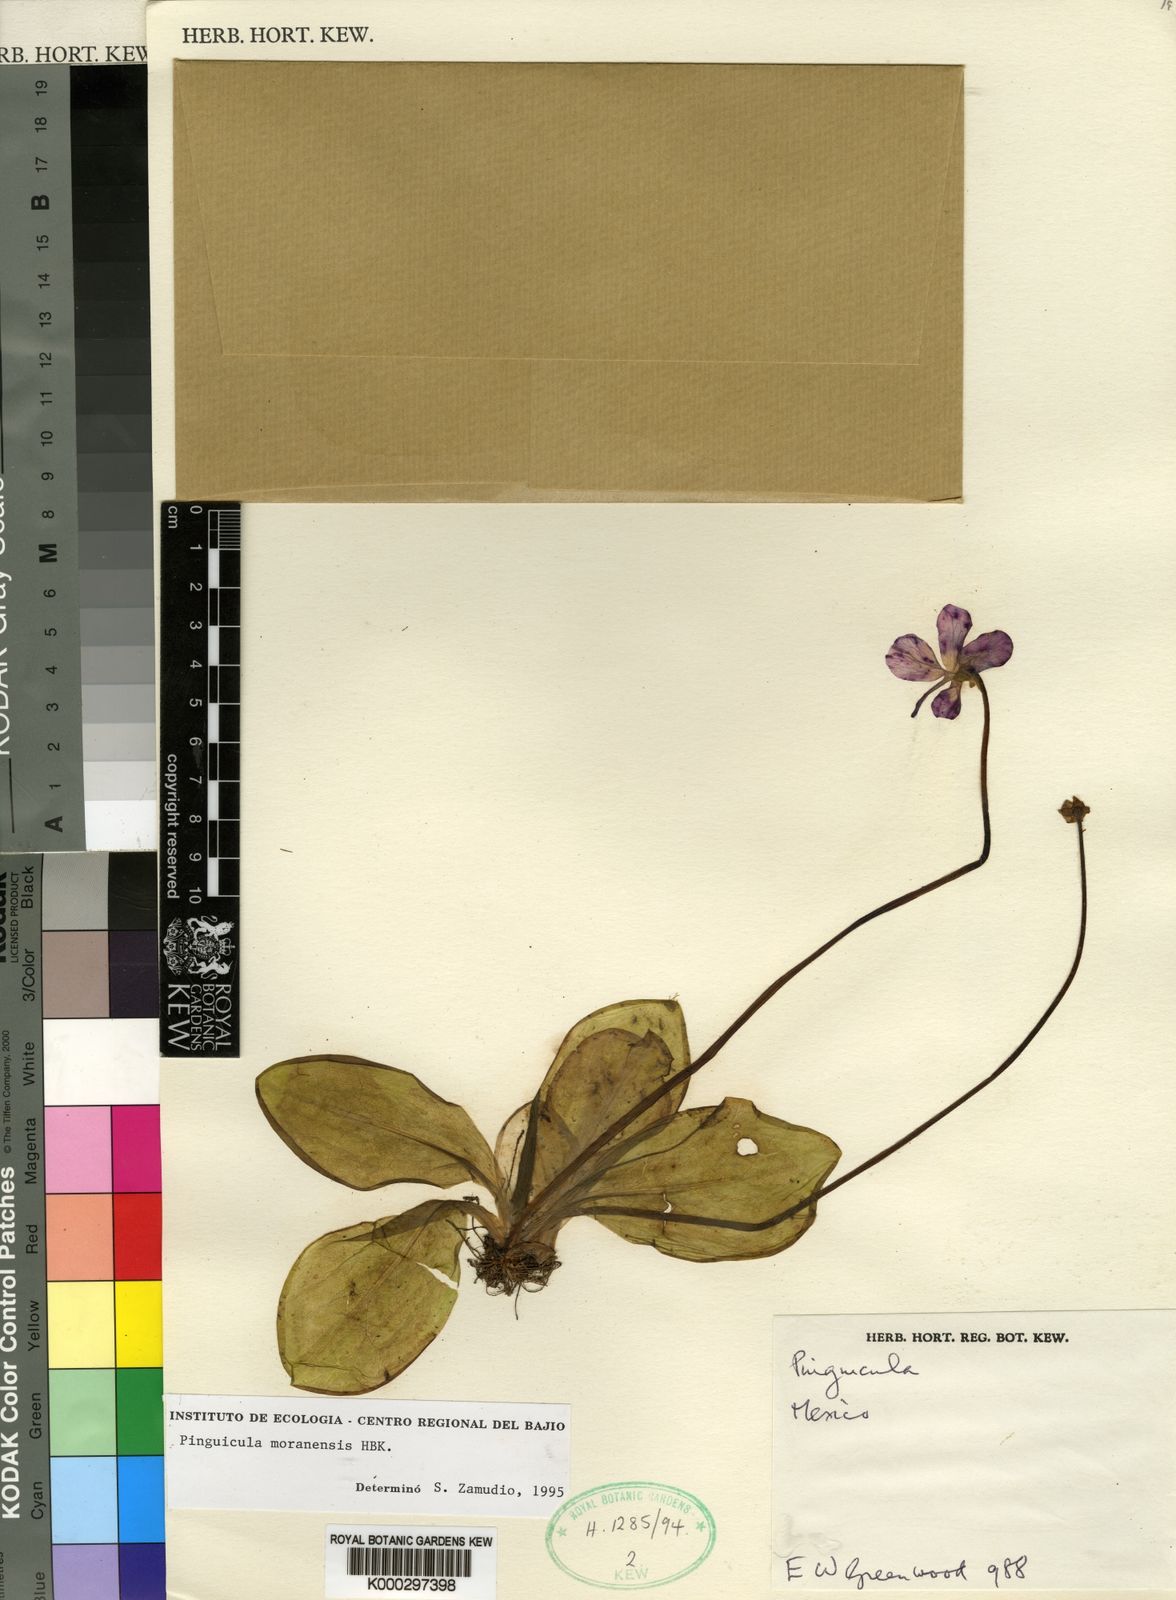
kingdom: Plantae
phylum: Tracheophyta
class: Magnoliopsida
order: Lamiales
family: Lentibulariaceae
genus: Pinguicula
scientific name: Pinguicula moranensis
